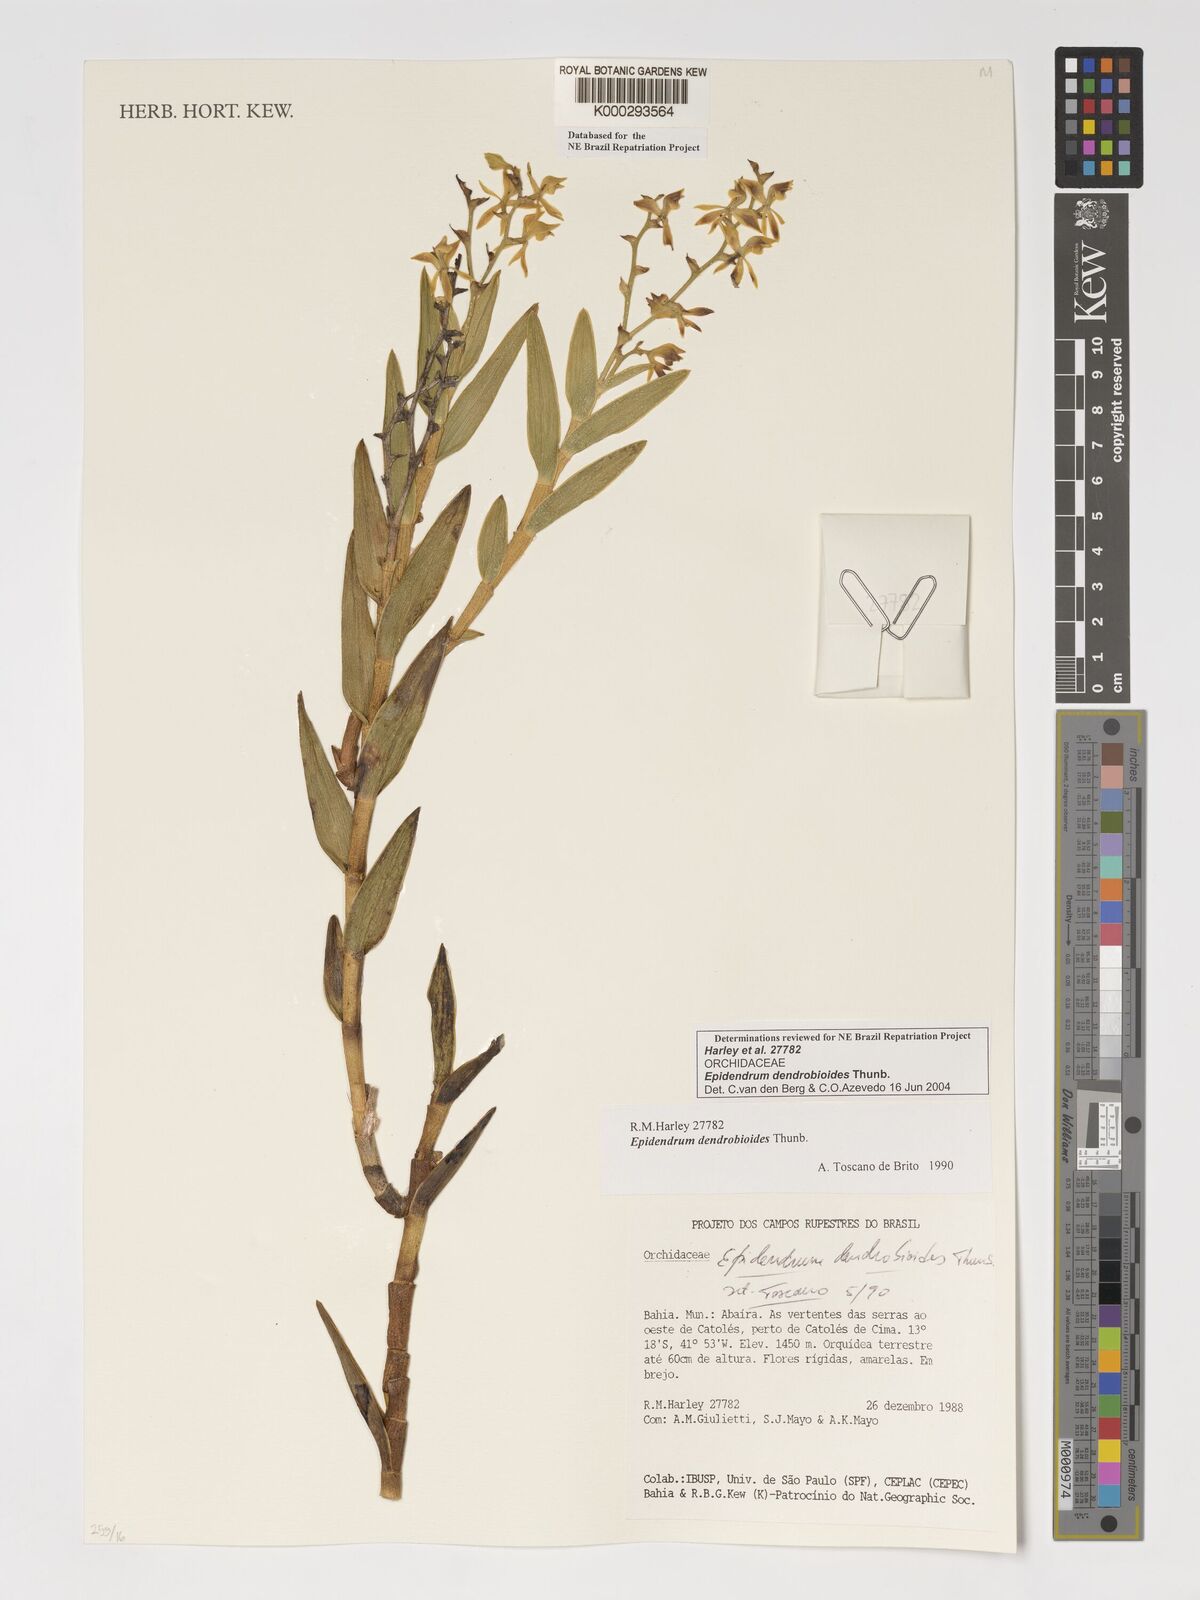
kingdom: Plantae
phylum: Tracheophyta
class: Liliopsida
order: Asparagales
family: Orchidaceae
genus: Epidendrum
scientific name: Epidendrum dendrobioides
